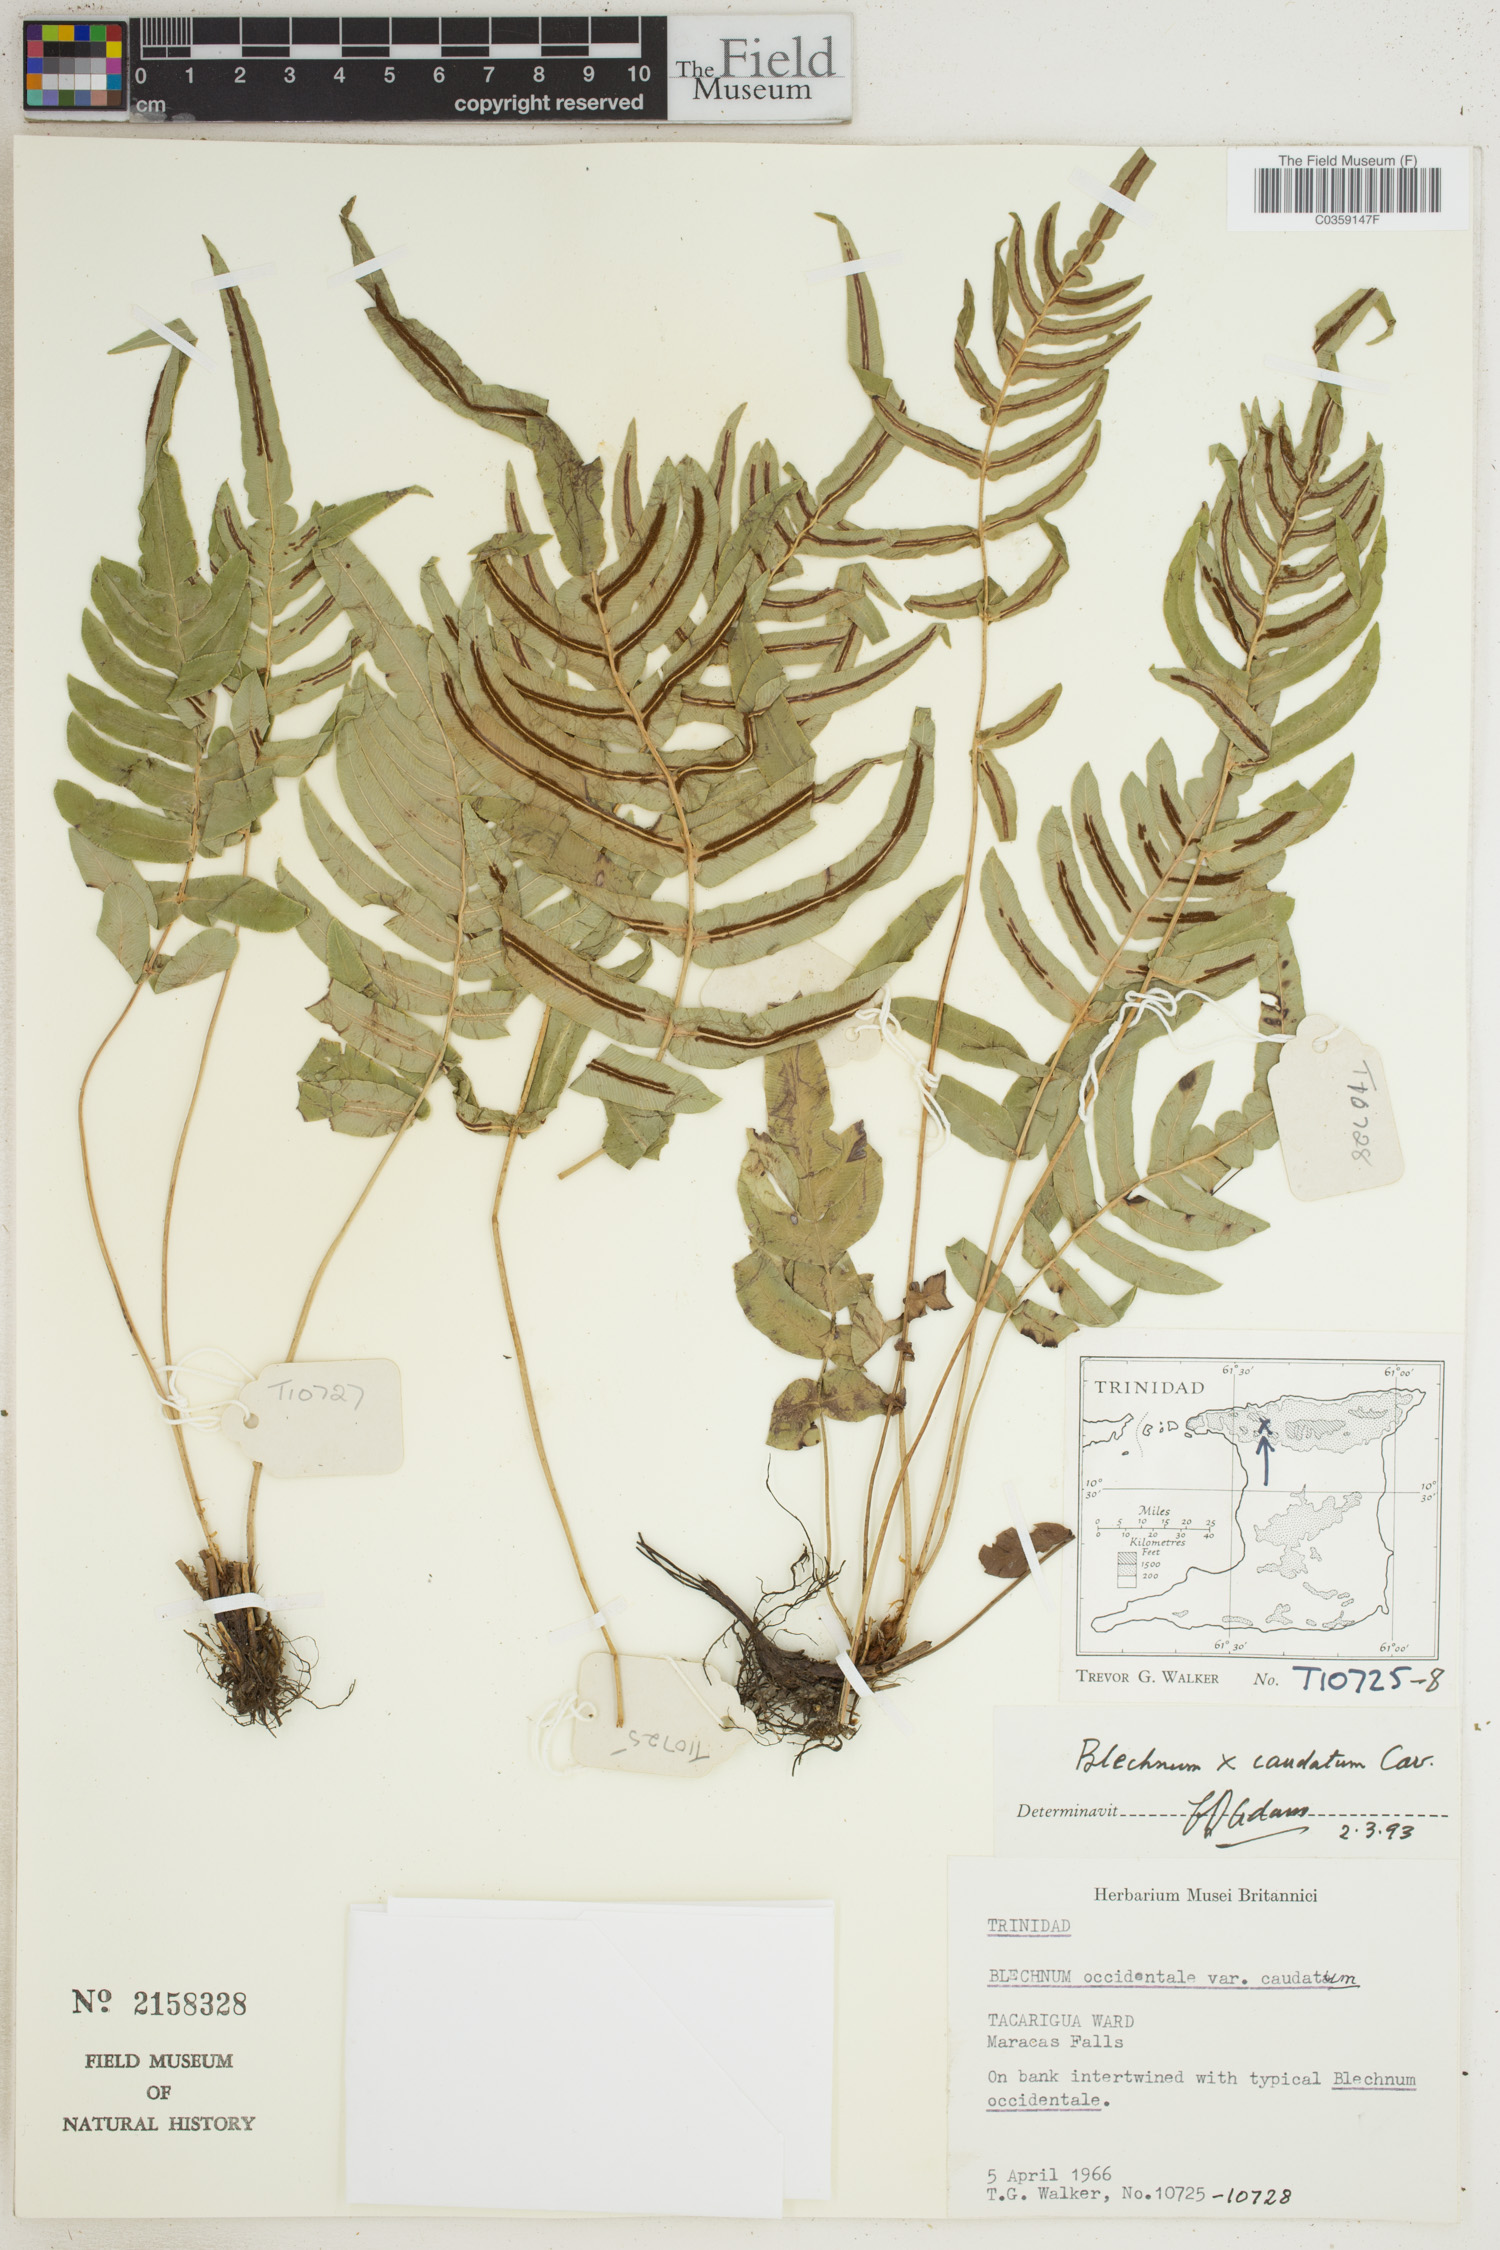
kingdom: Plantae
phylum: Tracheophyta
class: Polypodiopsida
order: Polypodiales
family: Blechnaceae
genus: Blechnum
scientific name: Blechnum caudatum
